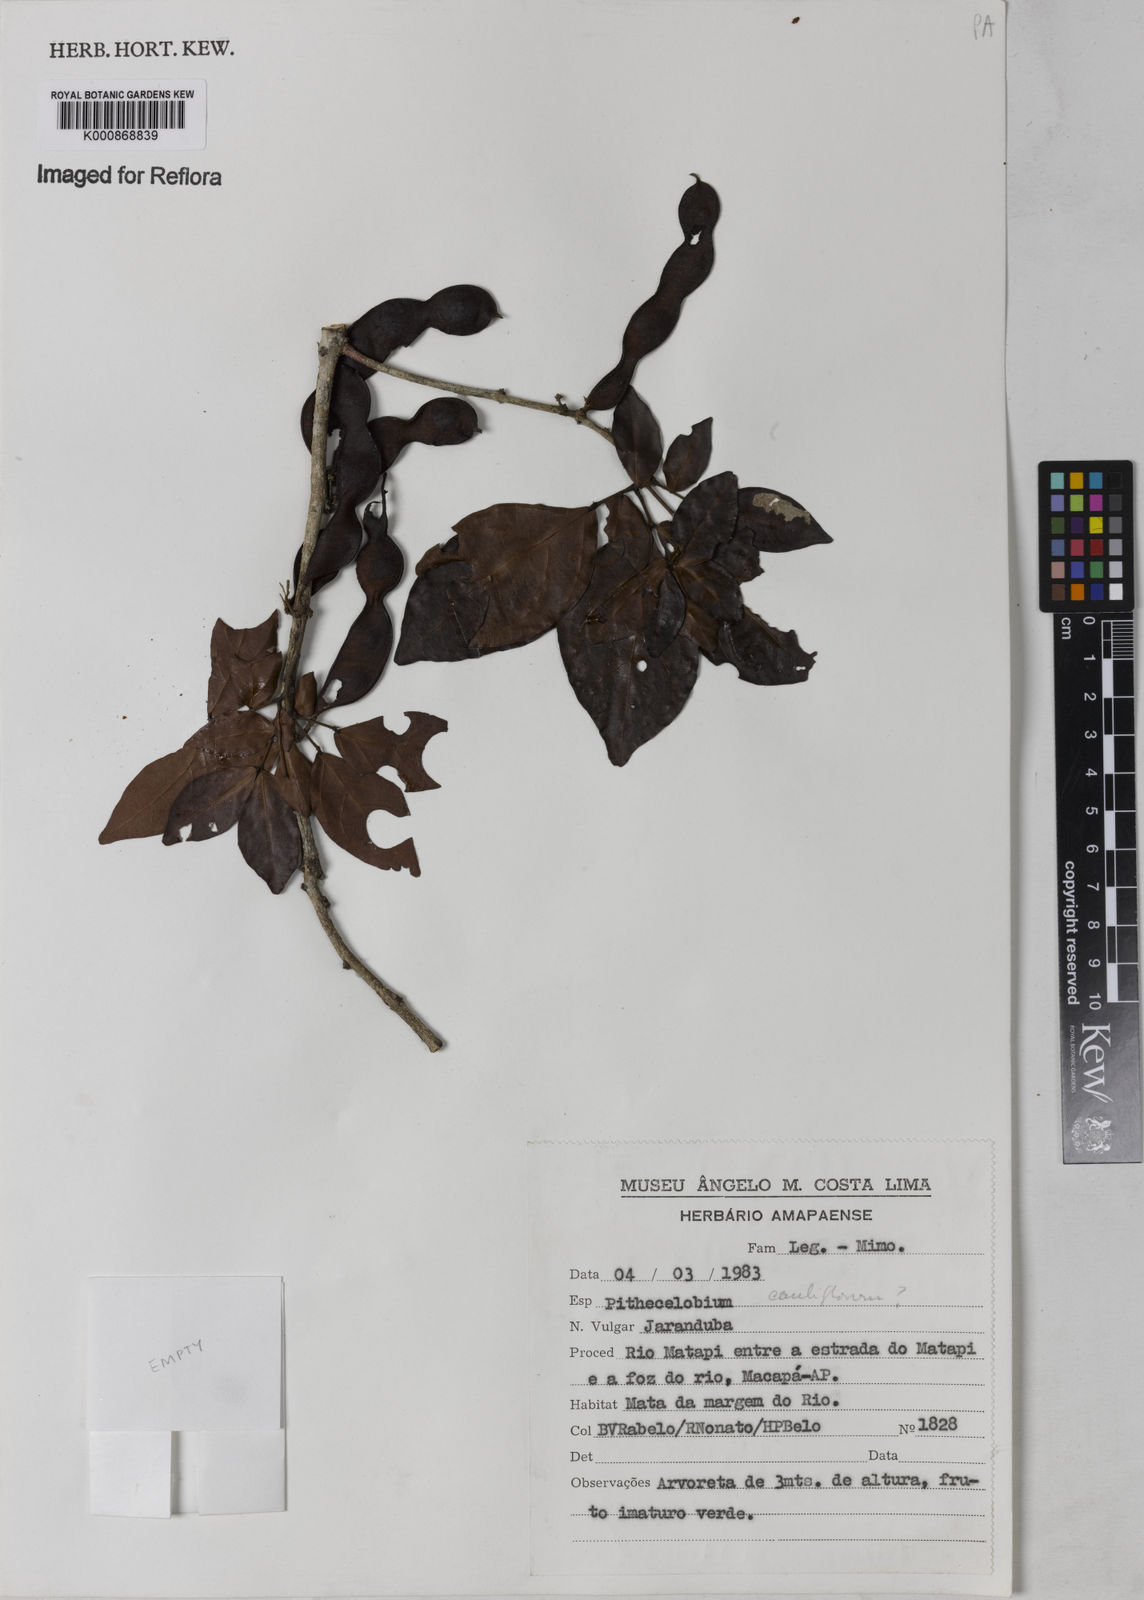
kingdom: Plantae
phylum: Tracheophyta
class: Magnoliopsida
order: Fabales
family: Fabaceae
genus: Zygia
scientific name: Zygia
